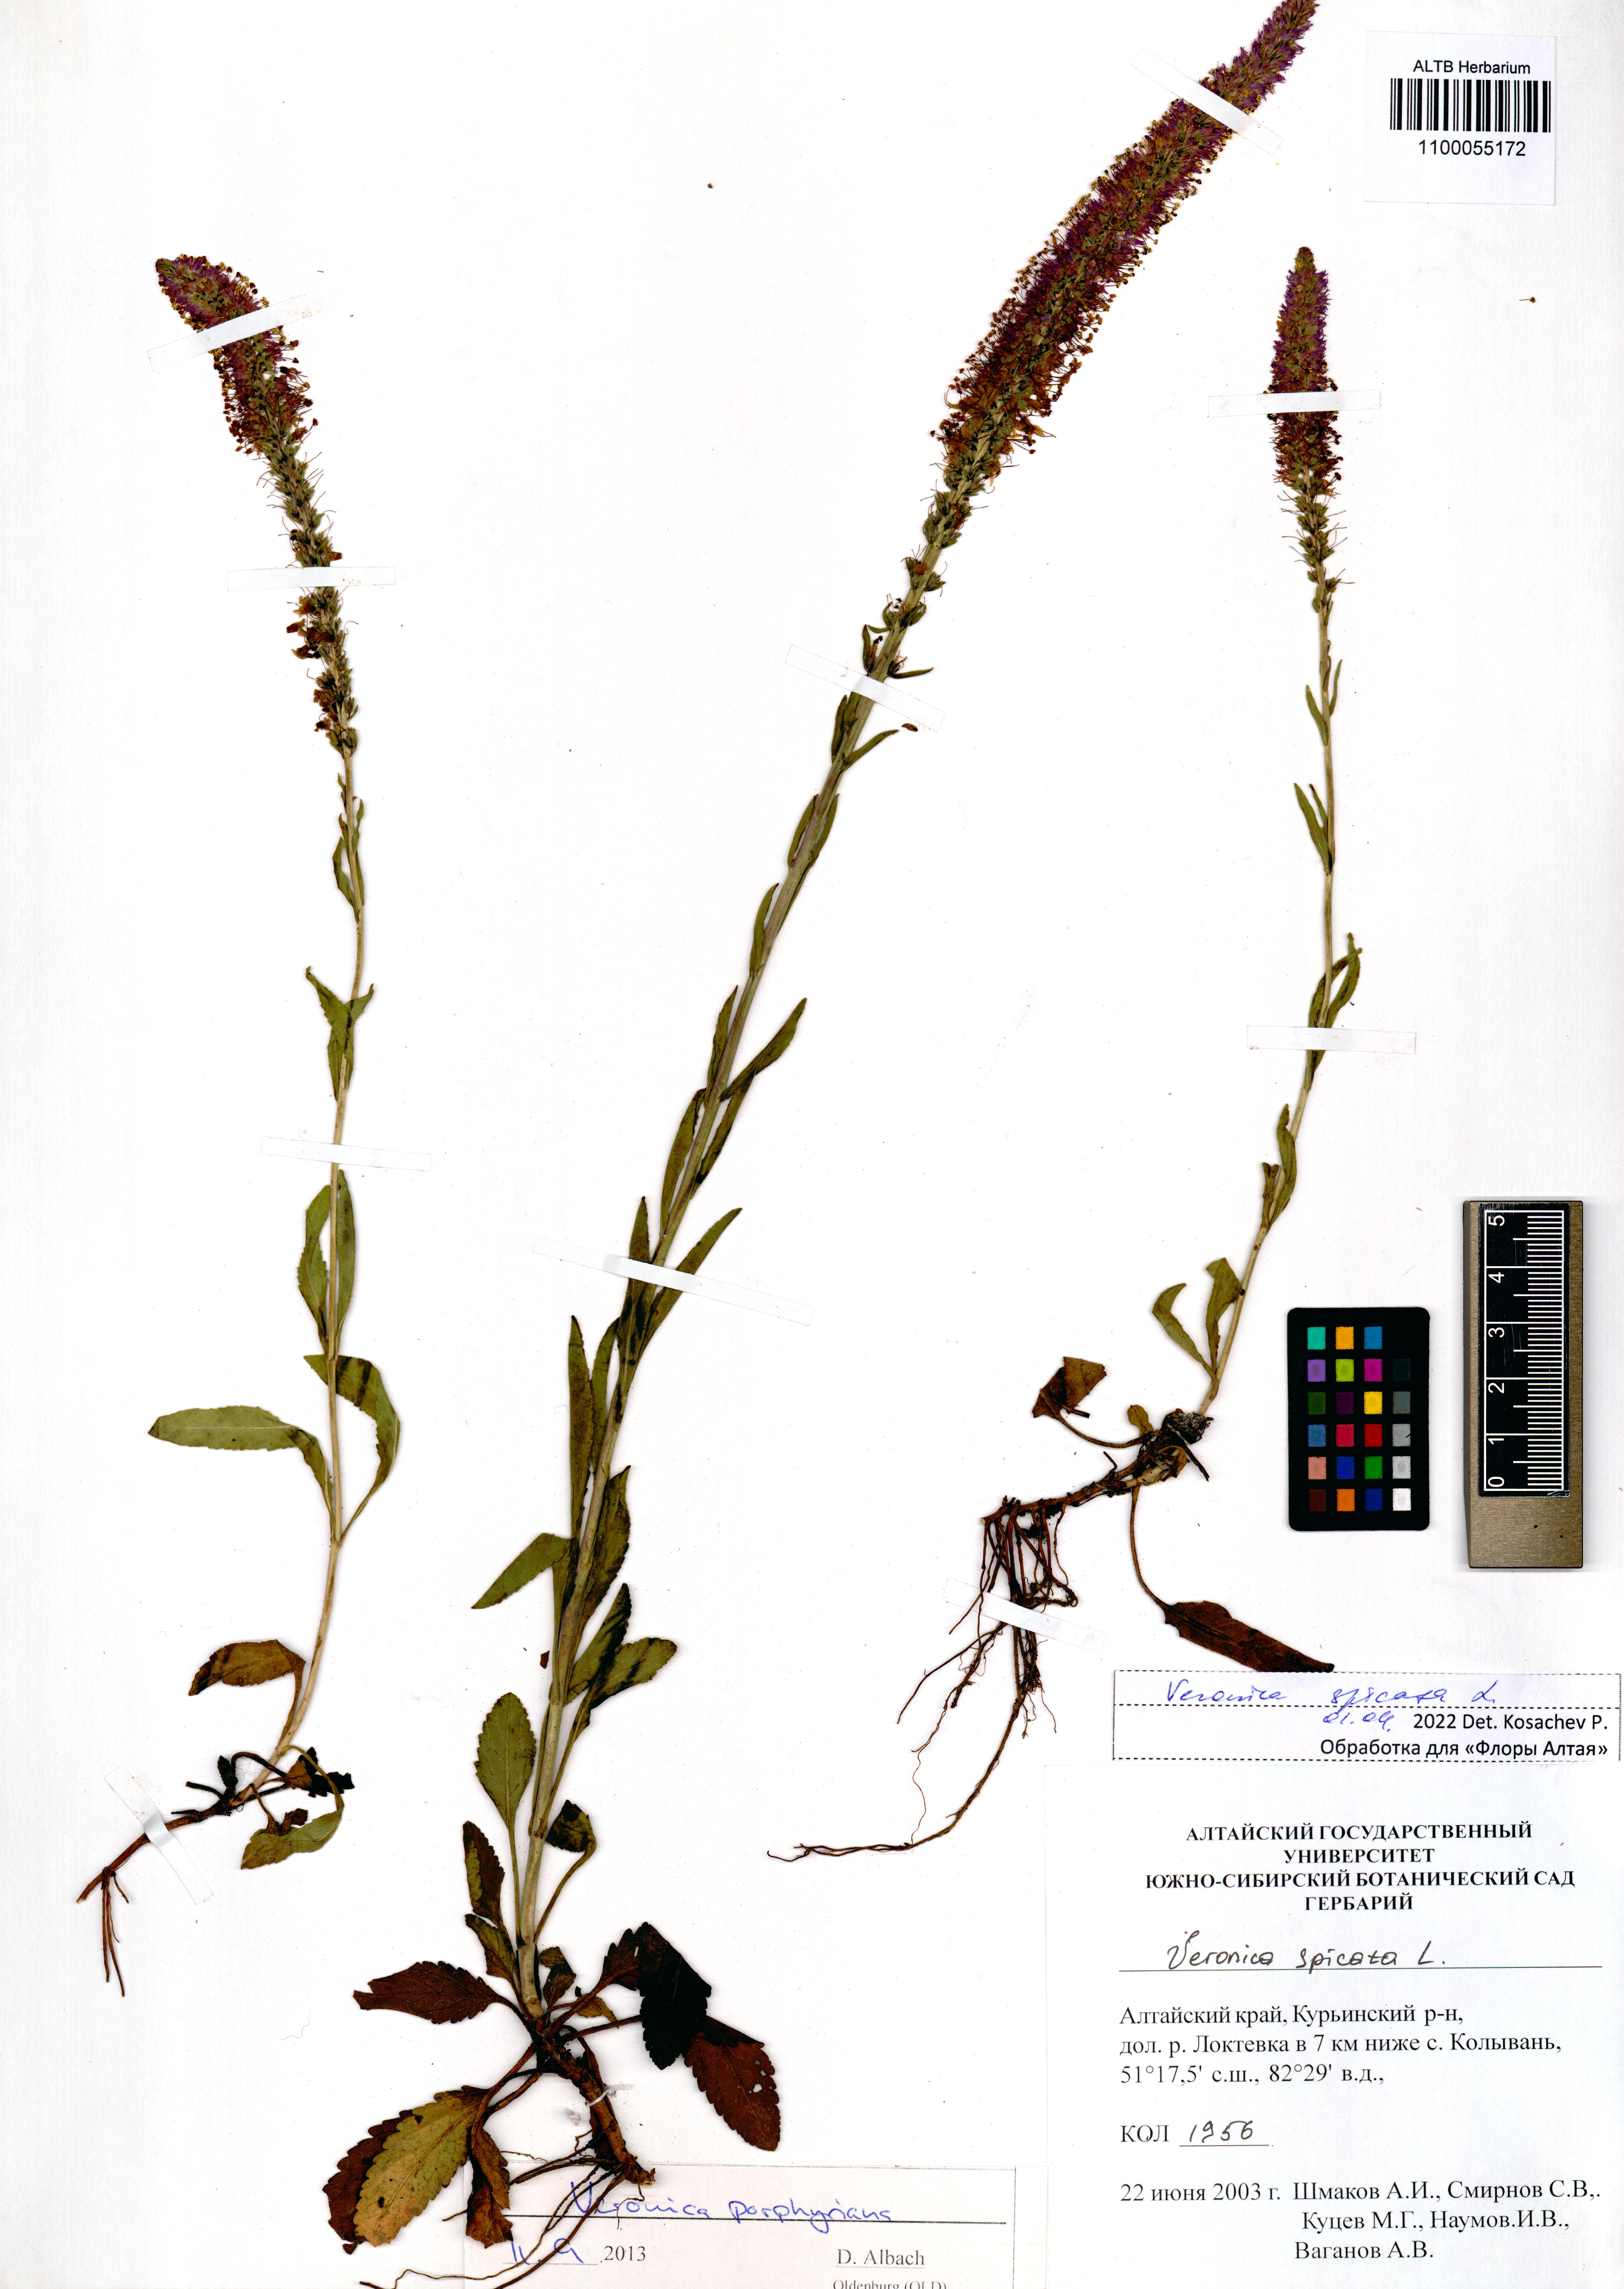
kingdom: Plantae
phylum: Tracheophyta
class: Magnoliopsida
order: Lamiales
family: Plantaginaceae
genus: Veronica
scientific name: Veronica spicata
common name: Spiked speedwell
